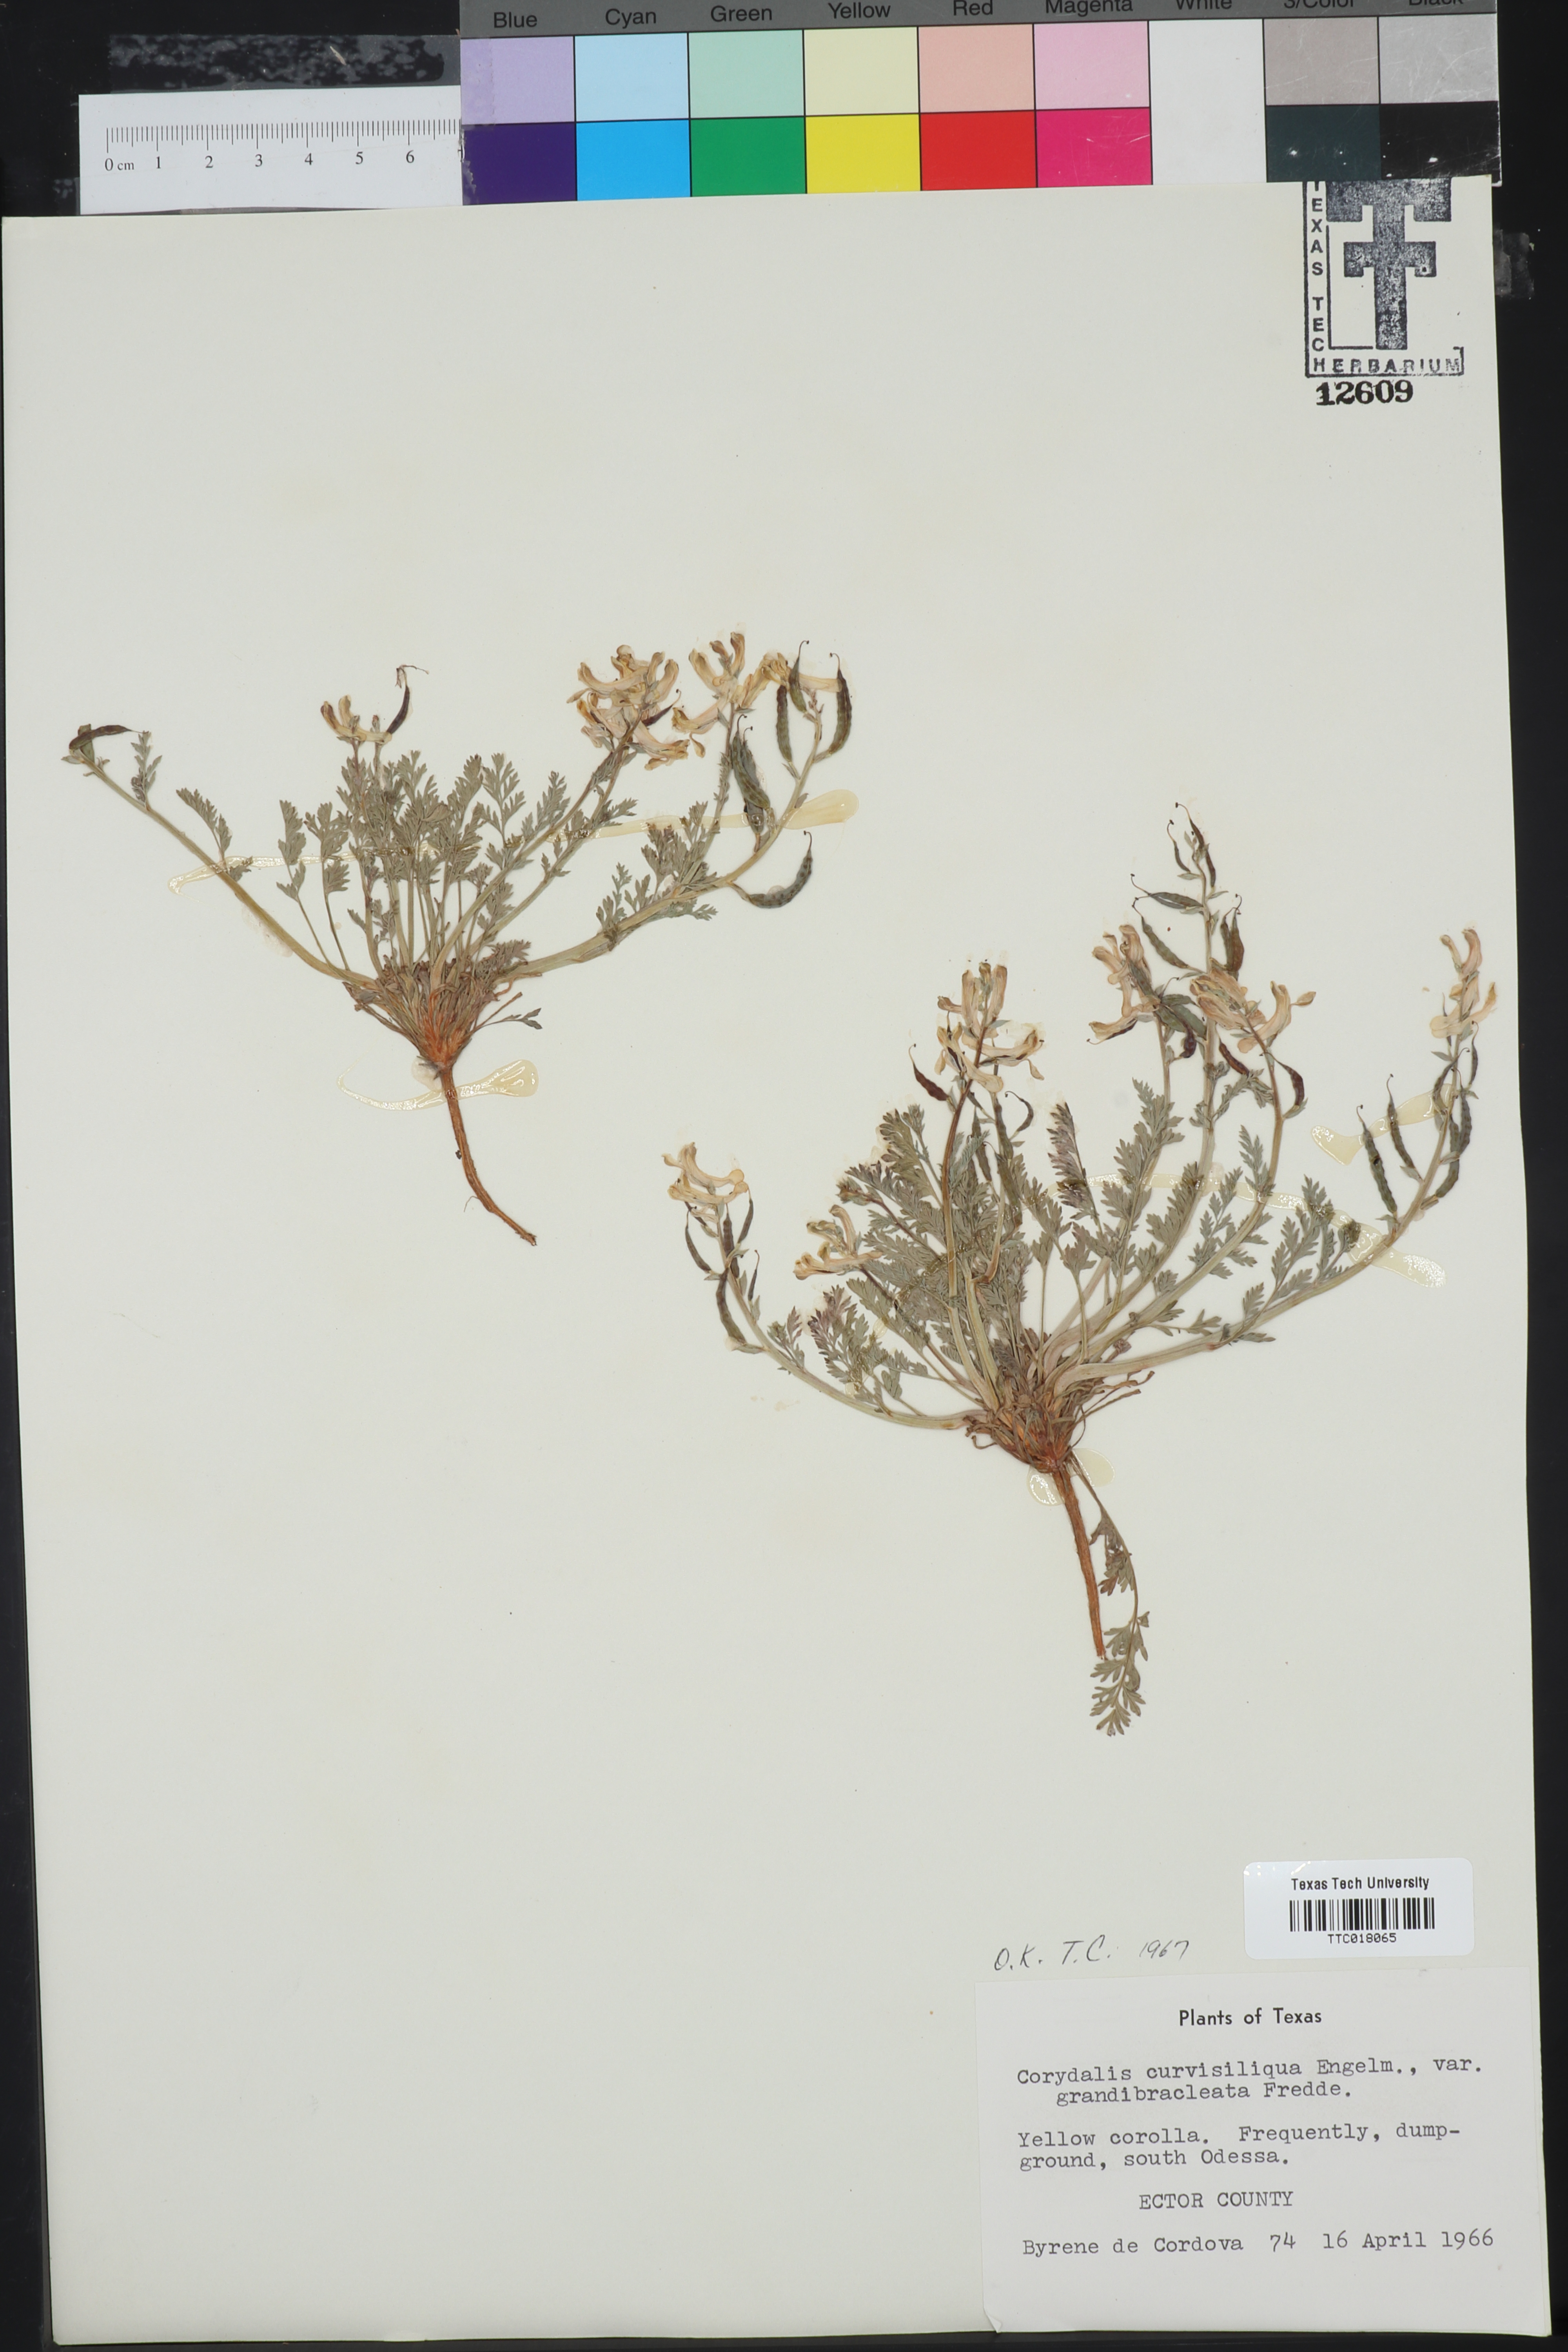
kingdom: Plantae
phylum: Tracheophyta
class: Magnoliopsida
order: Ranunculales
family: Papaveraceae
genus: Corydalis
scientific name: Corydalis curvisiliqua
